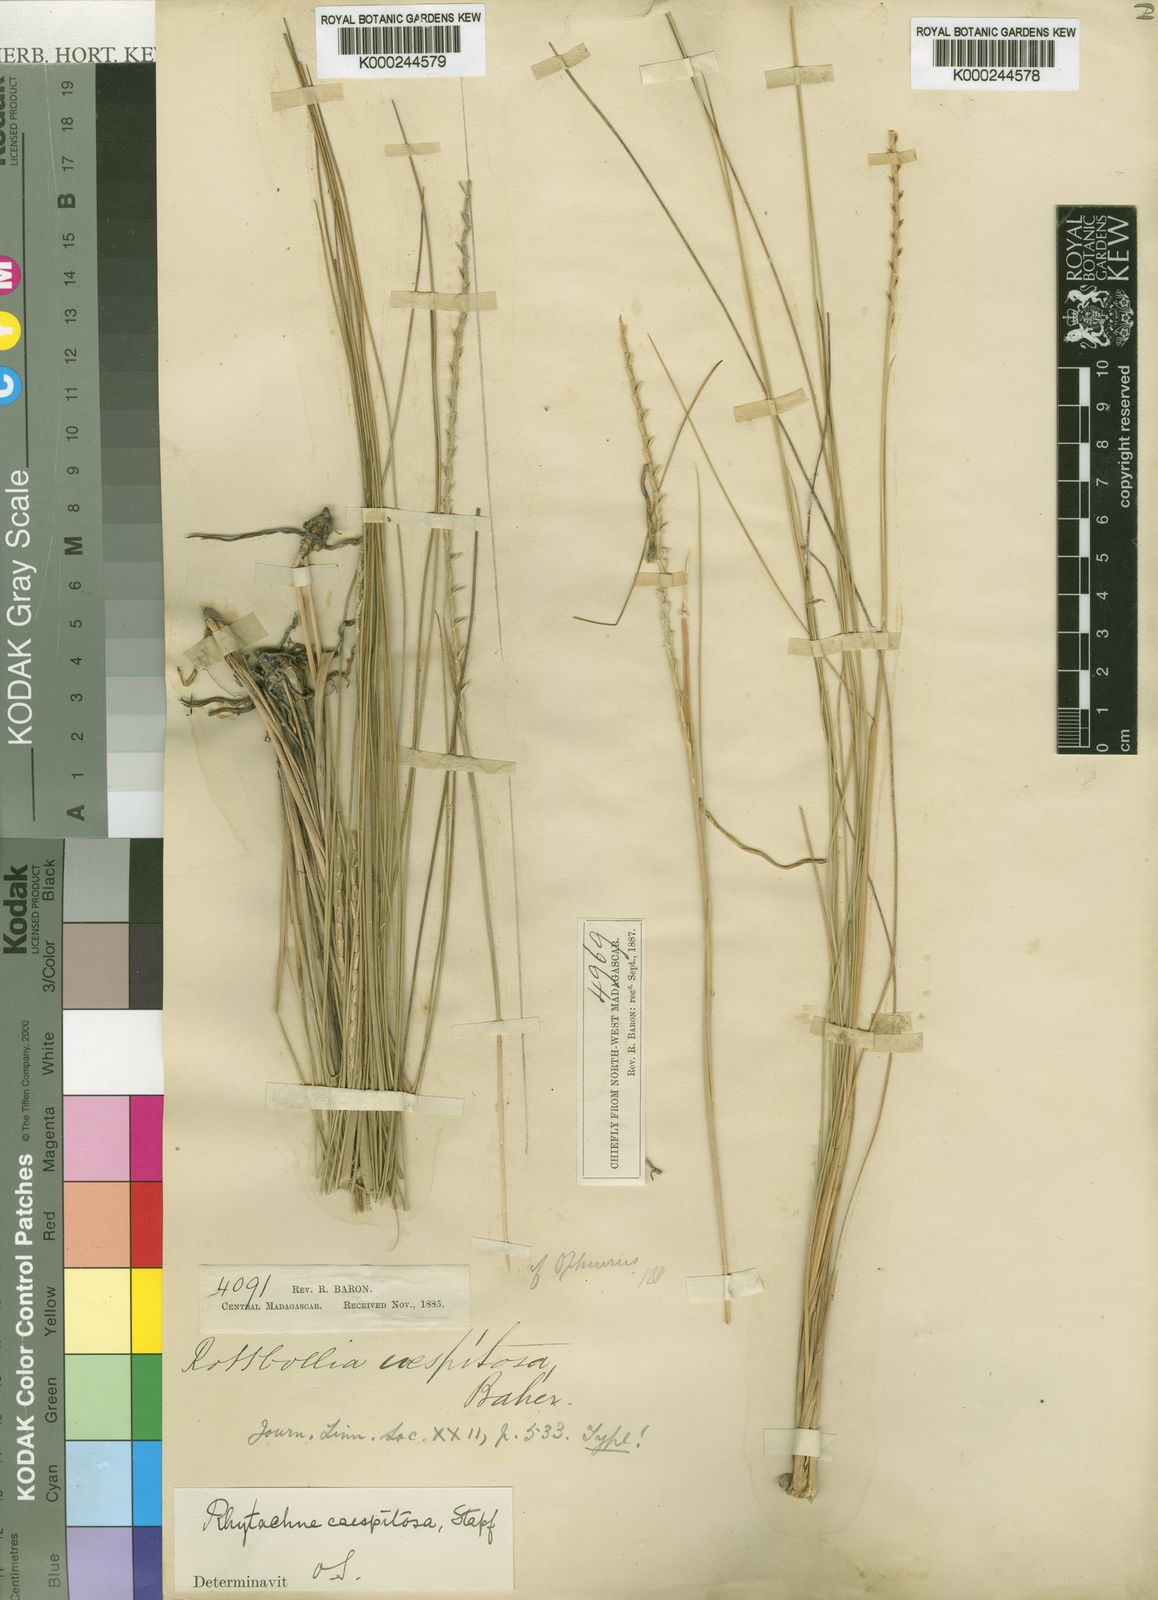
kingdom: Plantae
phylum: Tracheophyta
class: Liliopsida
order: Poales
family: Poaceae
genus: Rhytachne
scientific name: Rhytachne rottboellioides
